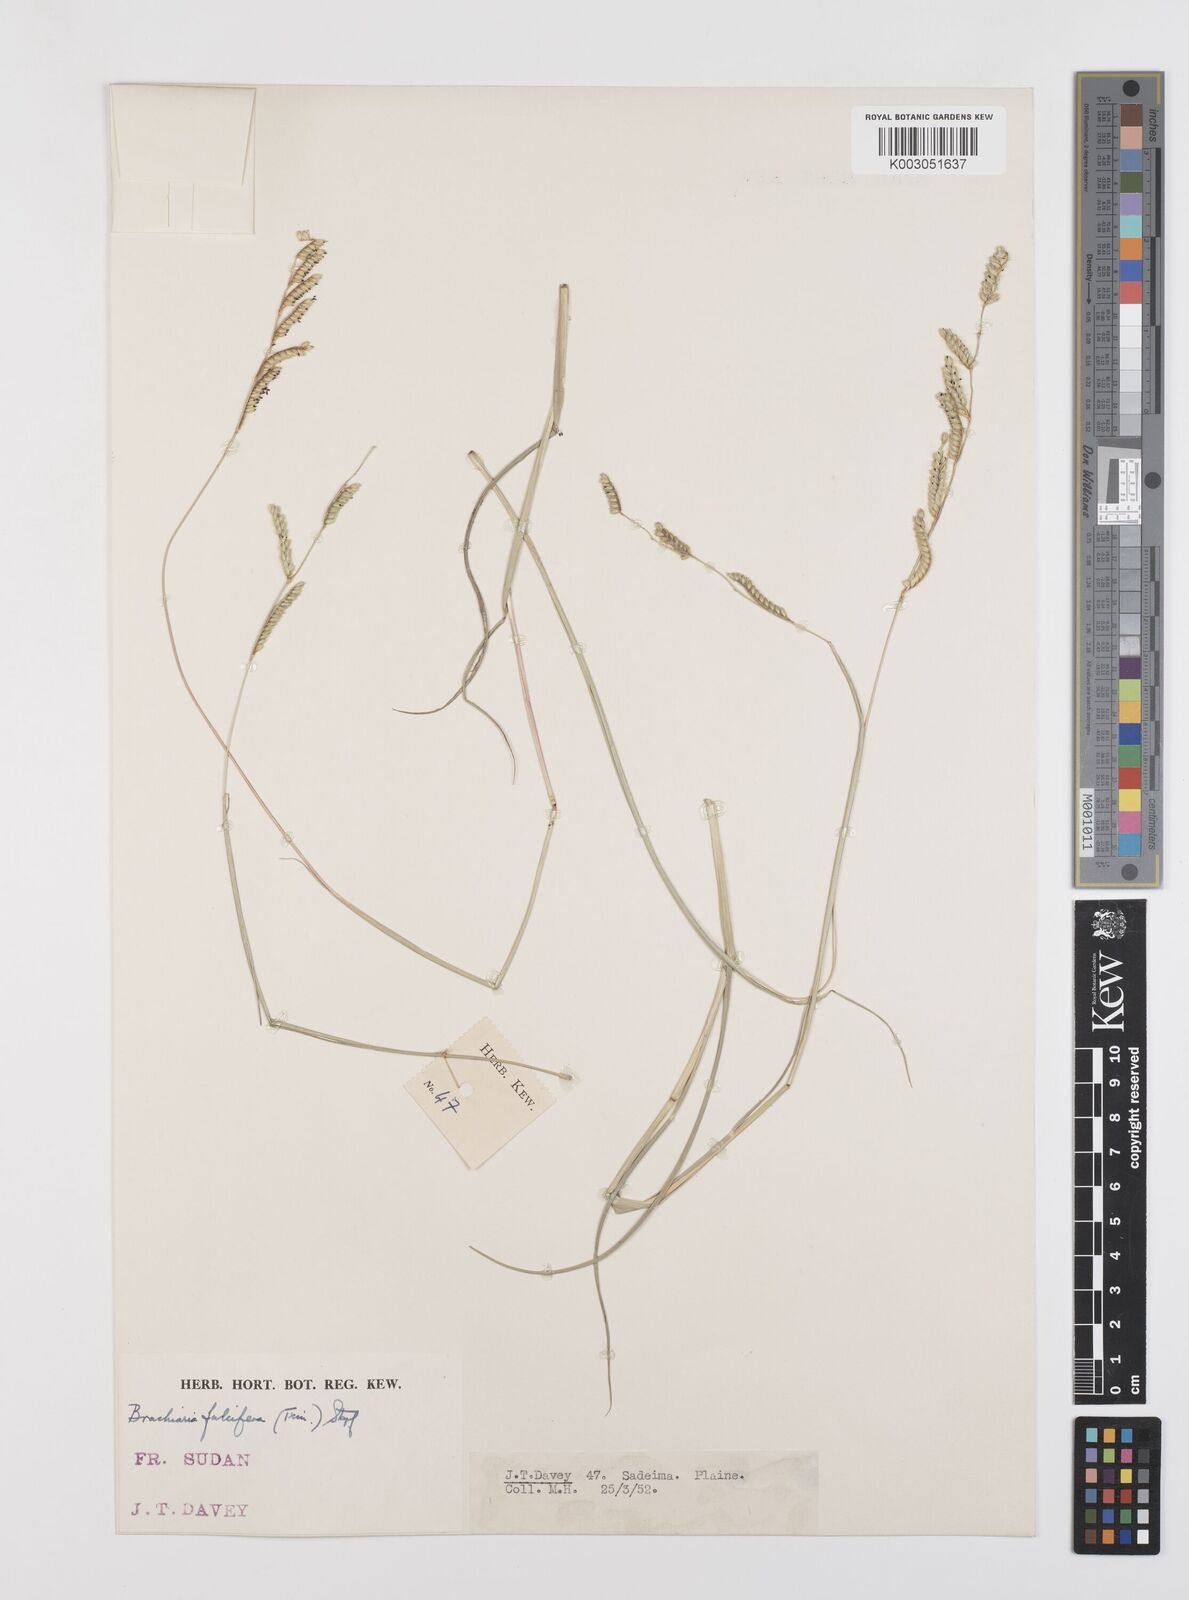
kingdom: Plantae
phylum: Tracheophyta
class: Liliopsida
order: Poales
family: Poaceae
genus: Urochloa
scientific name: Urochloa jubata
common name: Buffalograss
